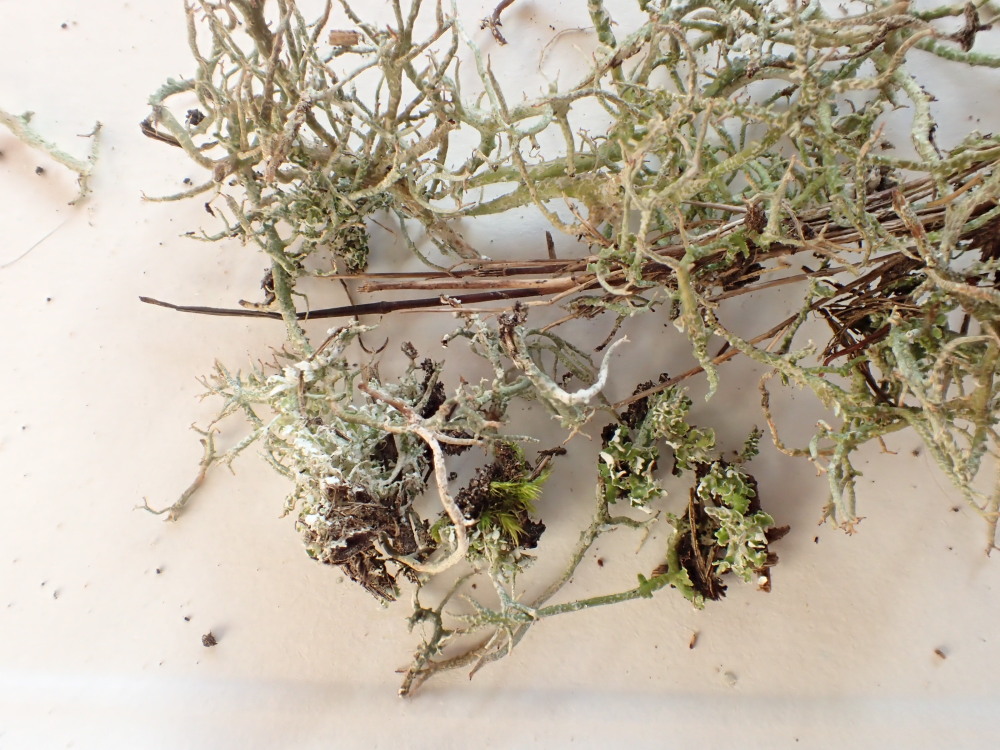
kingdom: Fungi
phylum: Ascomycota
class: Lecanoromycetes
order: Lecanorales
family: Cladoniaceae
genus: Cladonia
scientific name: Cladonia scabriuscula
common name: ru bægerlav
